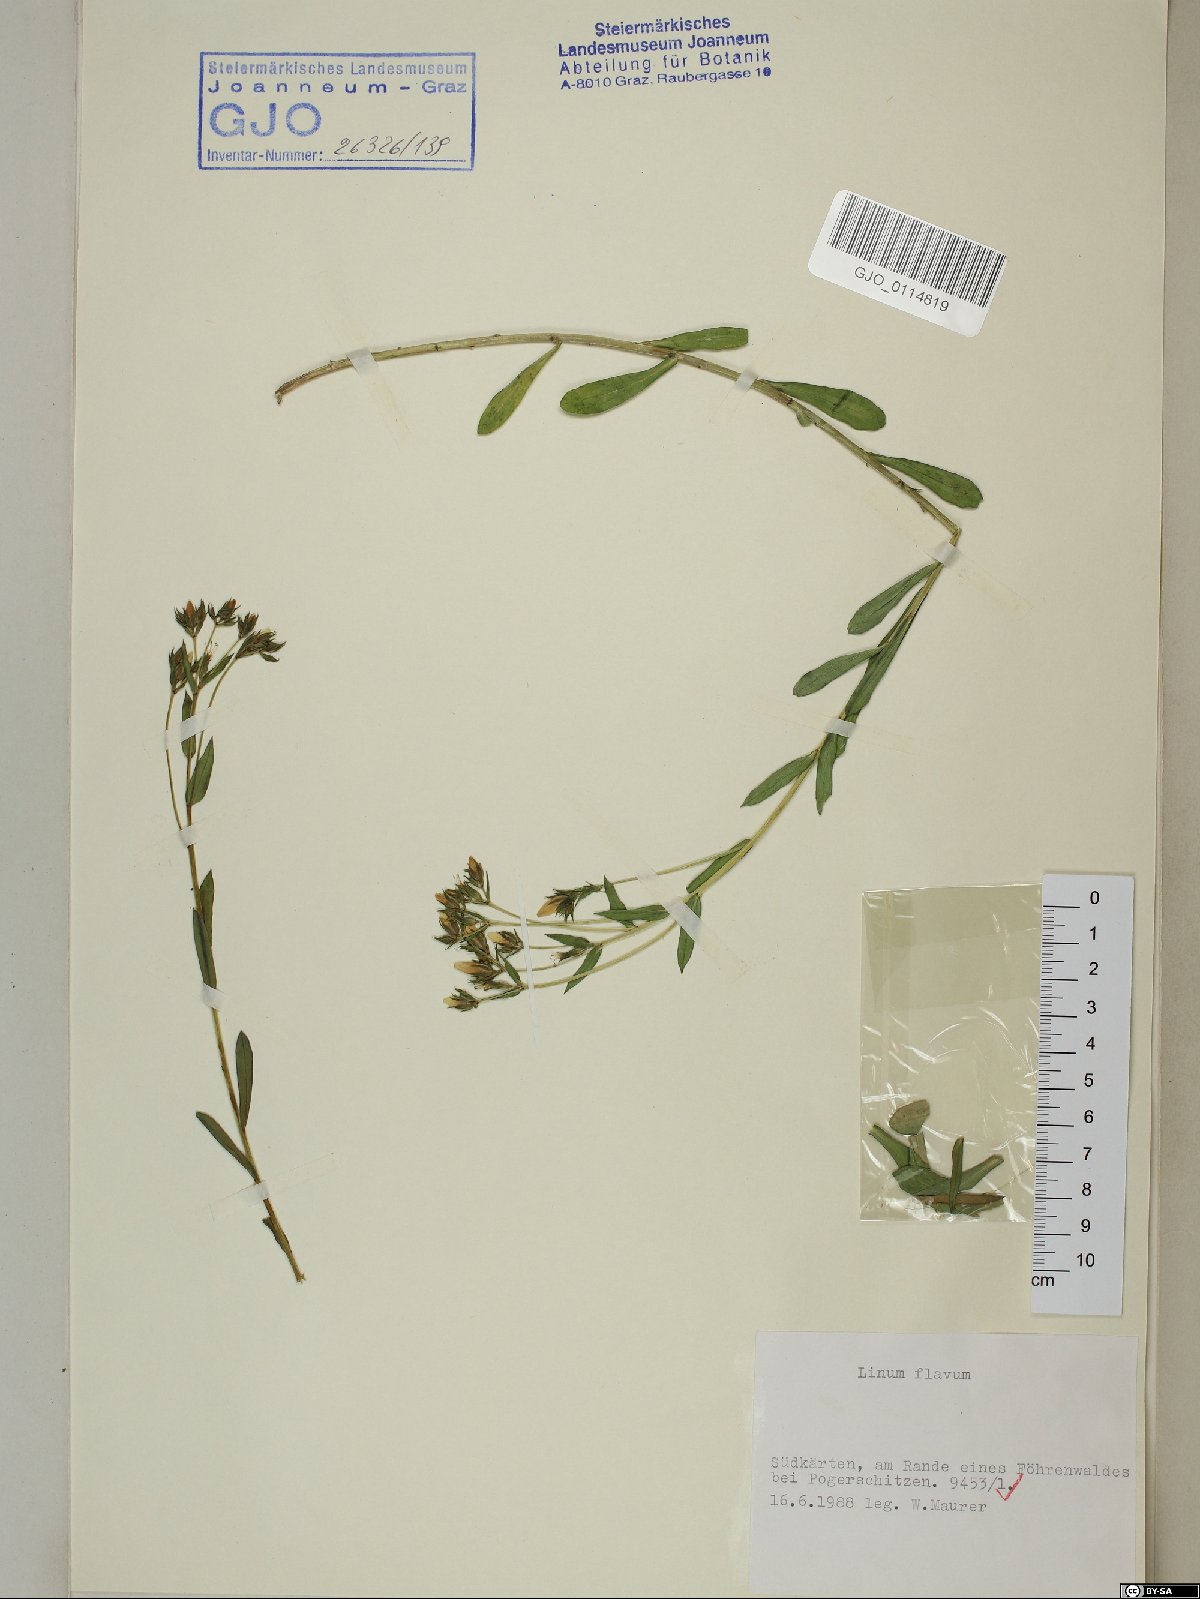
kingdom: Plantae
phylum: Tracheophyta
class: Magnoliopsida
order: Malpighiales
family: Linaceae
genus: Linum
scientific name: Linum flavum
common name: Yellow flax
